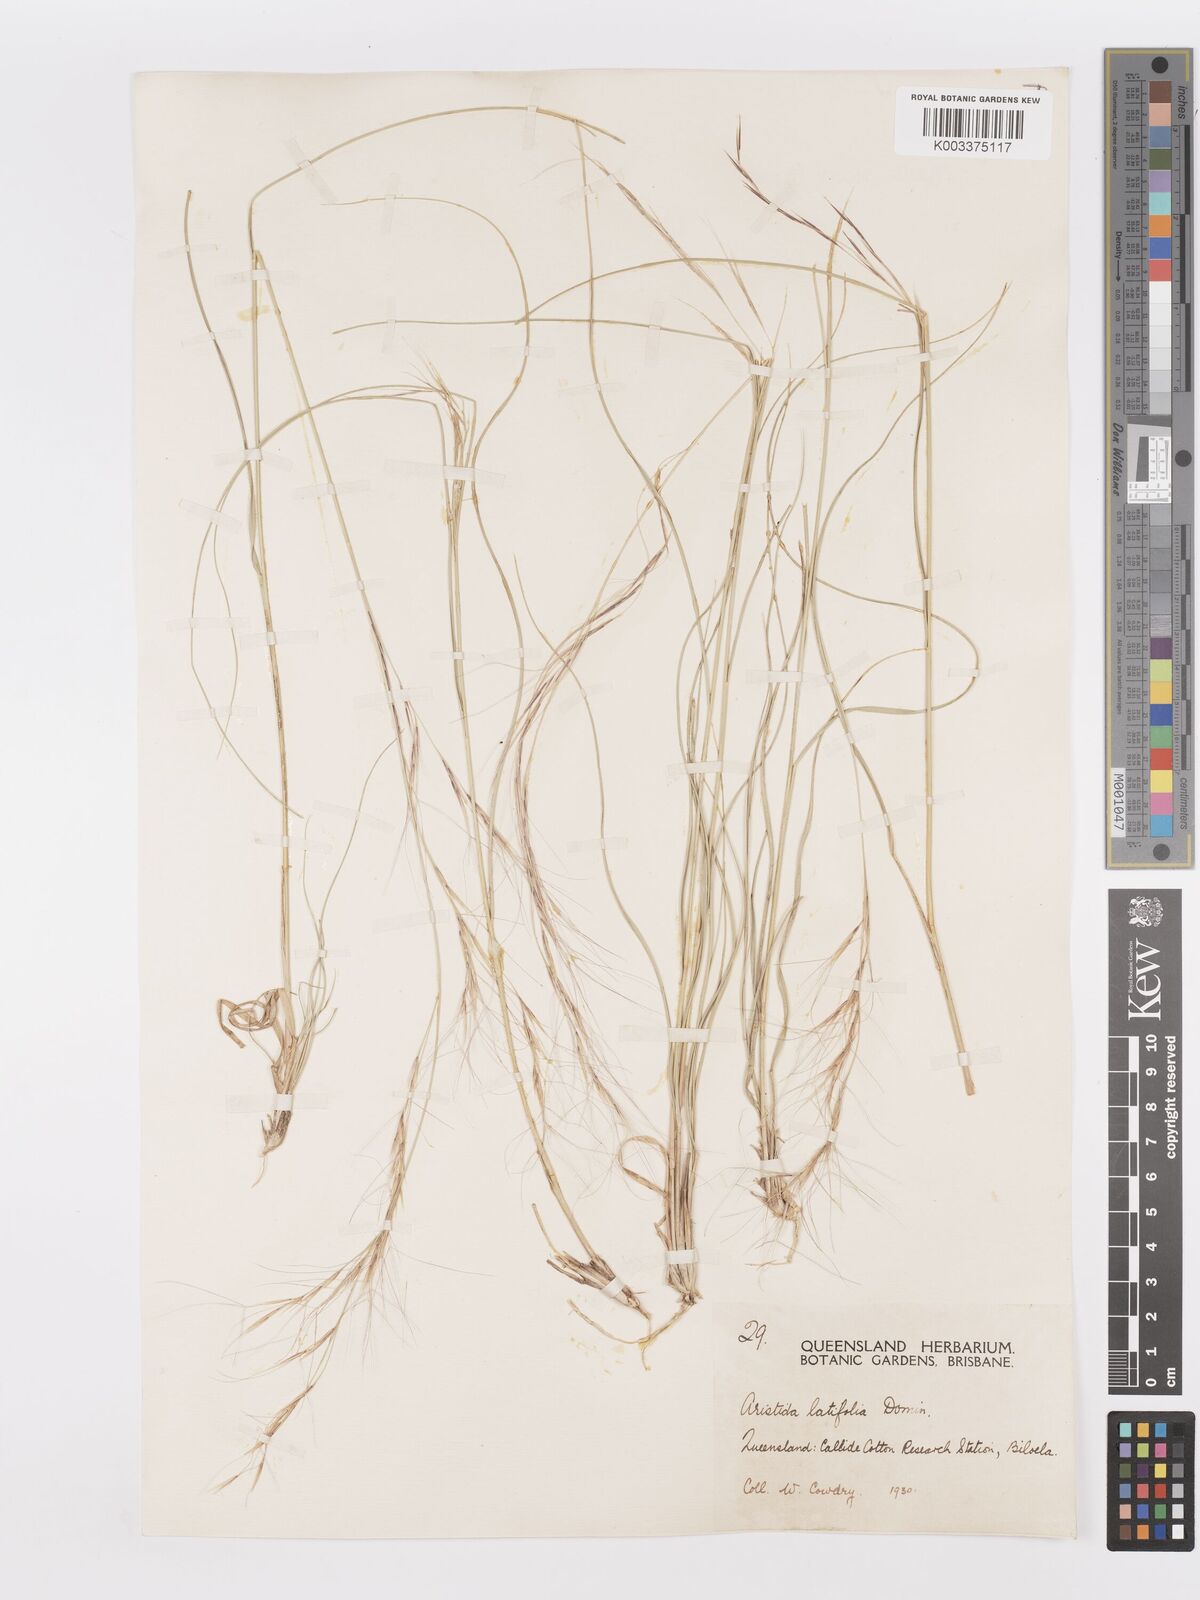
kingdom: Plantae
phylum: Tracheophyta
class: Liliopsida
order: Poales
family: Poaceae
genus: Aristida
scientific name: Aristida latifolia
